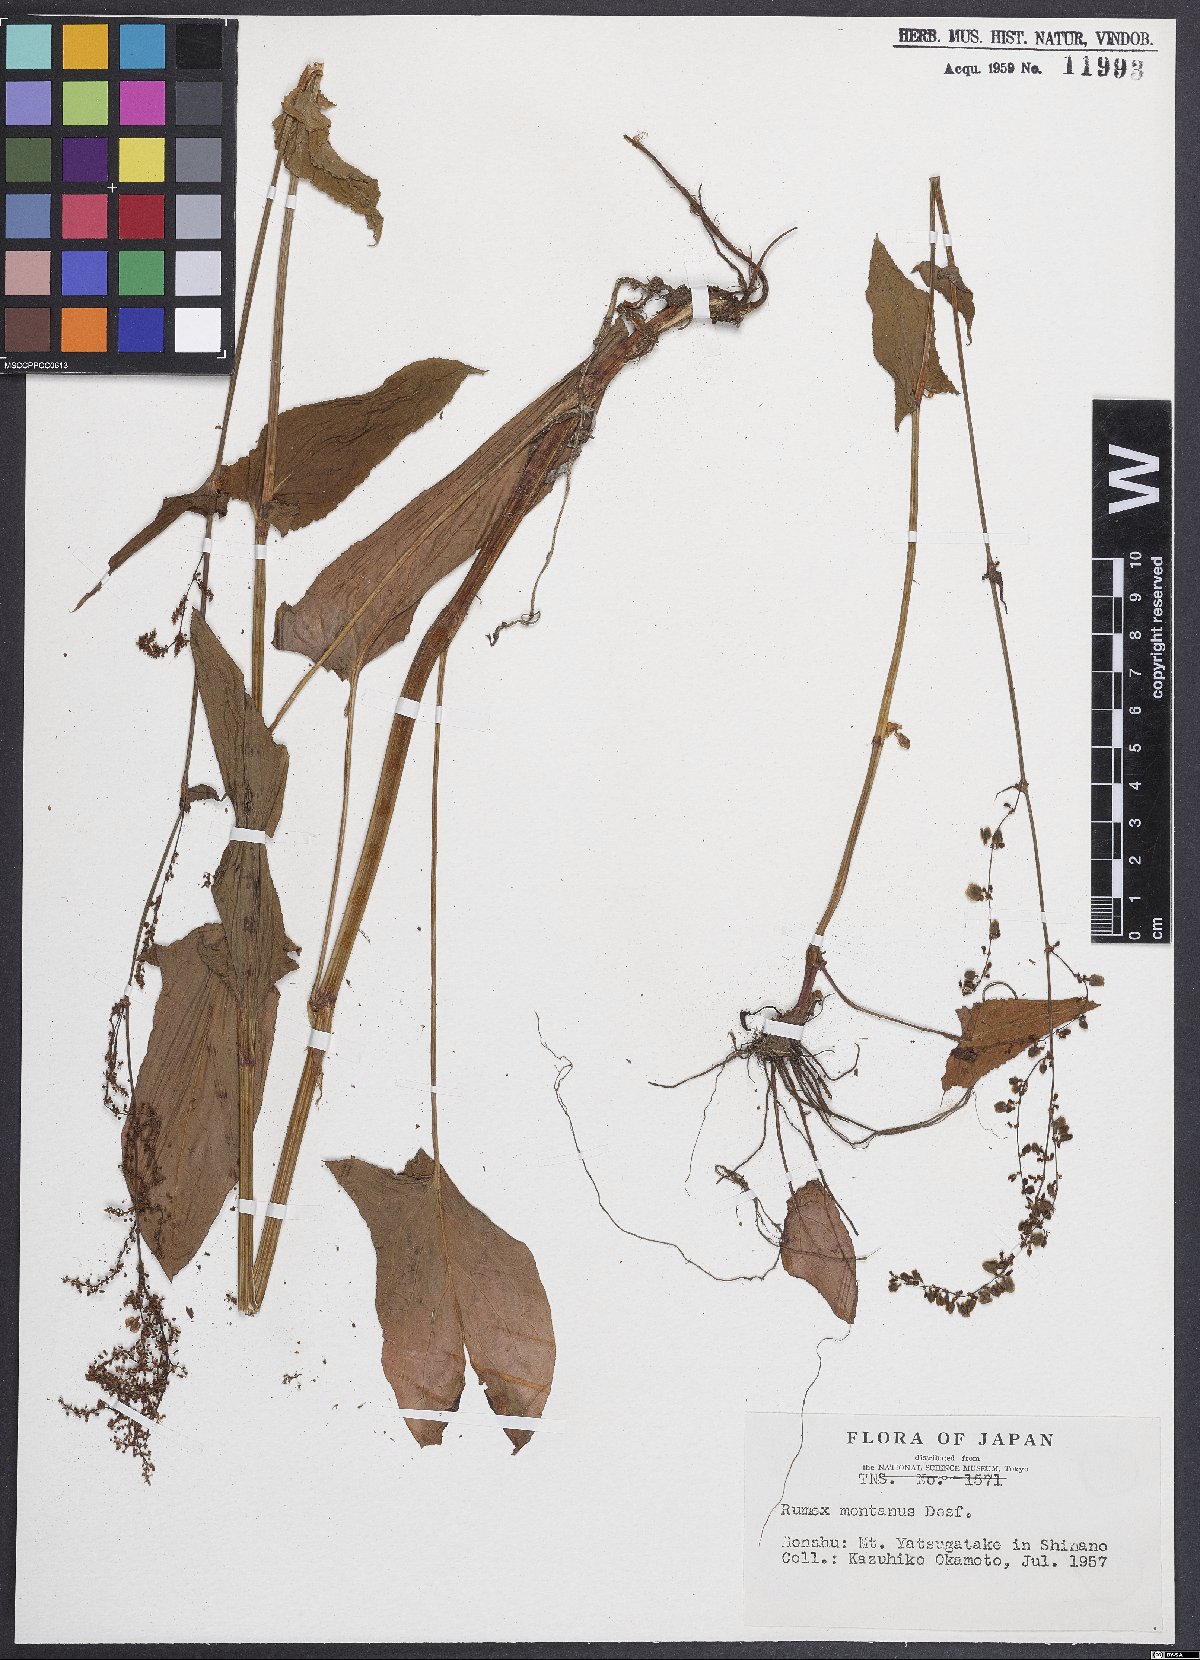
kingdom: Plantae
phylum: Tracheophyta
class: Magnoliopsida
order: Caryophyllales
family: Polygonaceae
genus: Rumex
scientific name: Rumex
